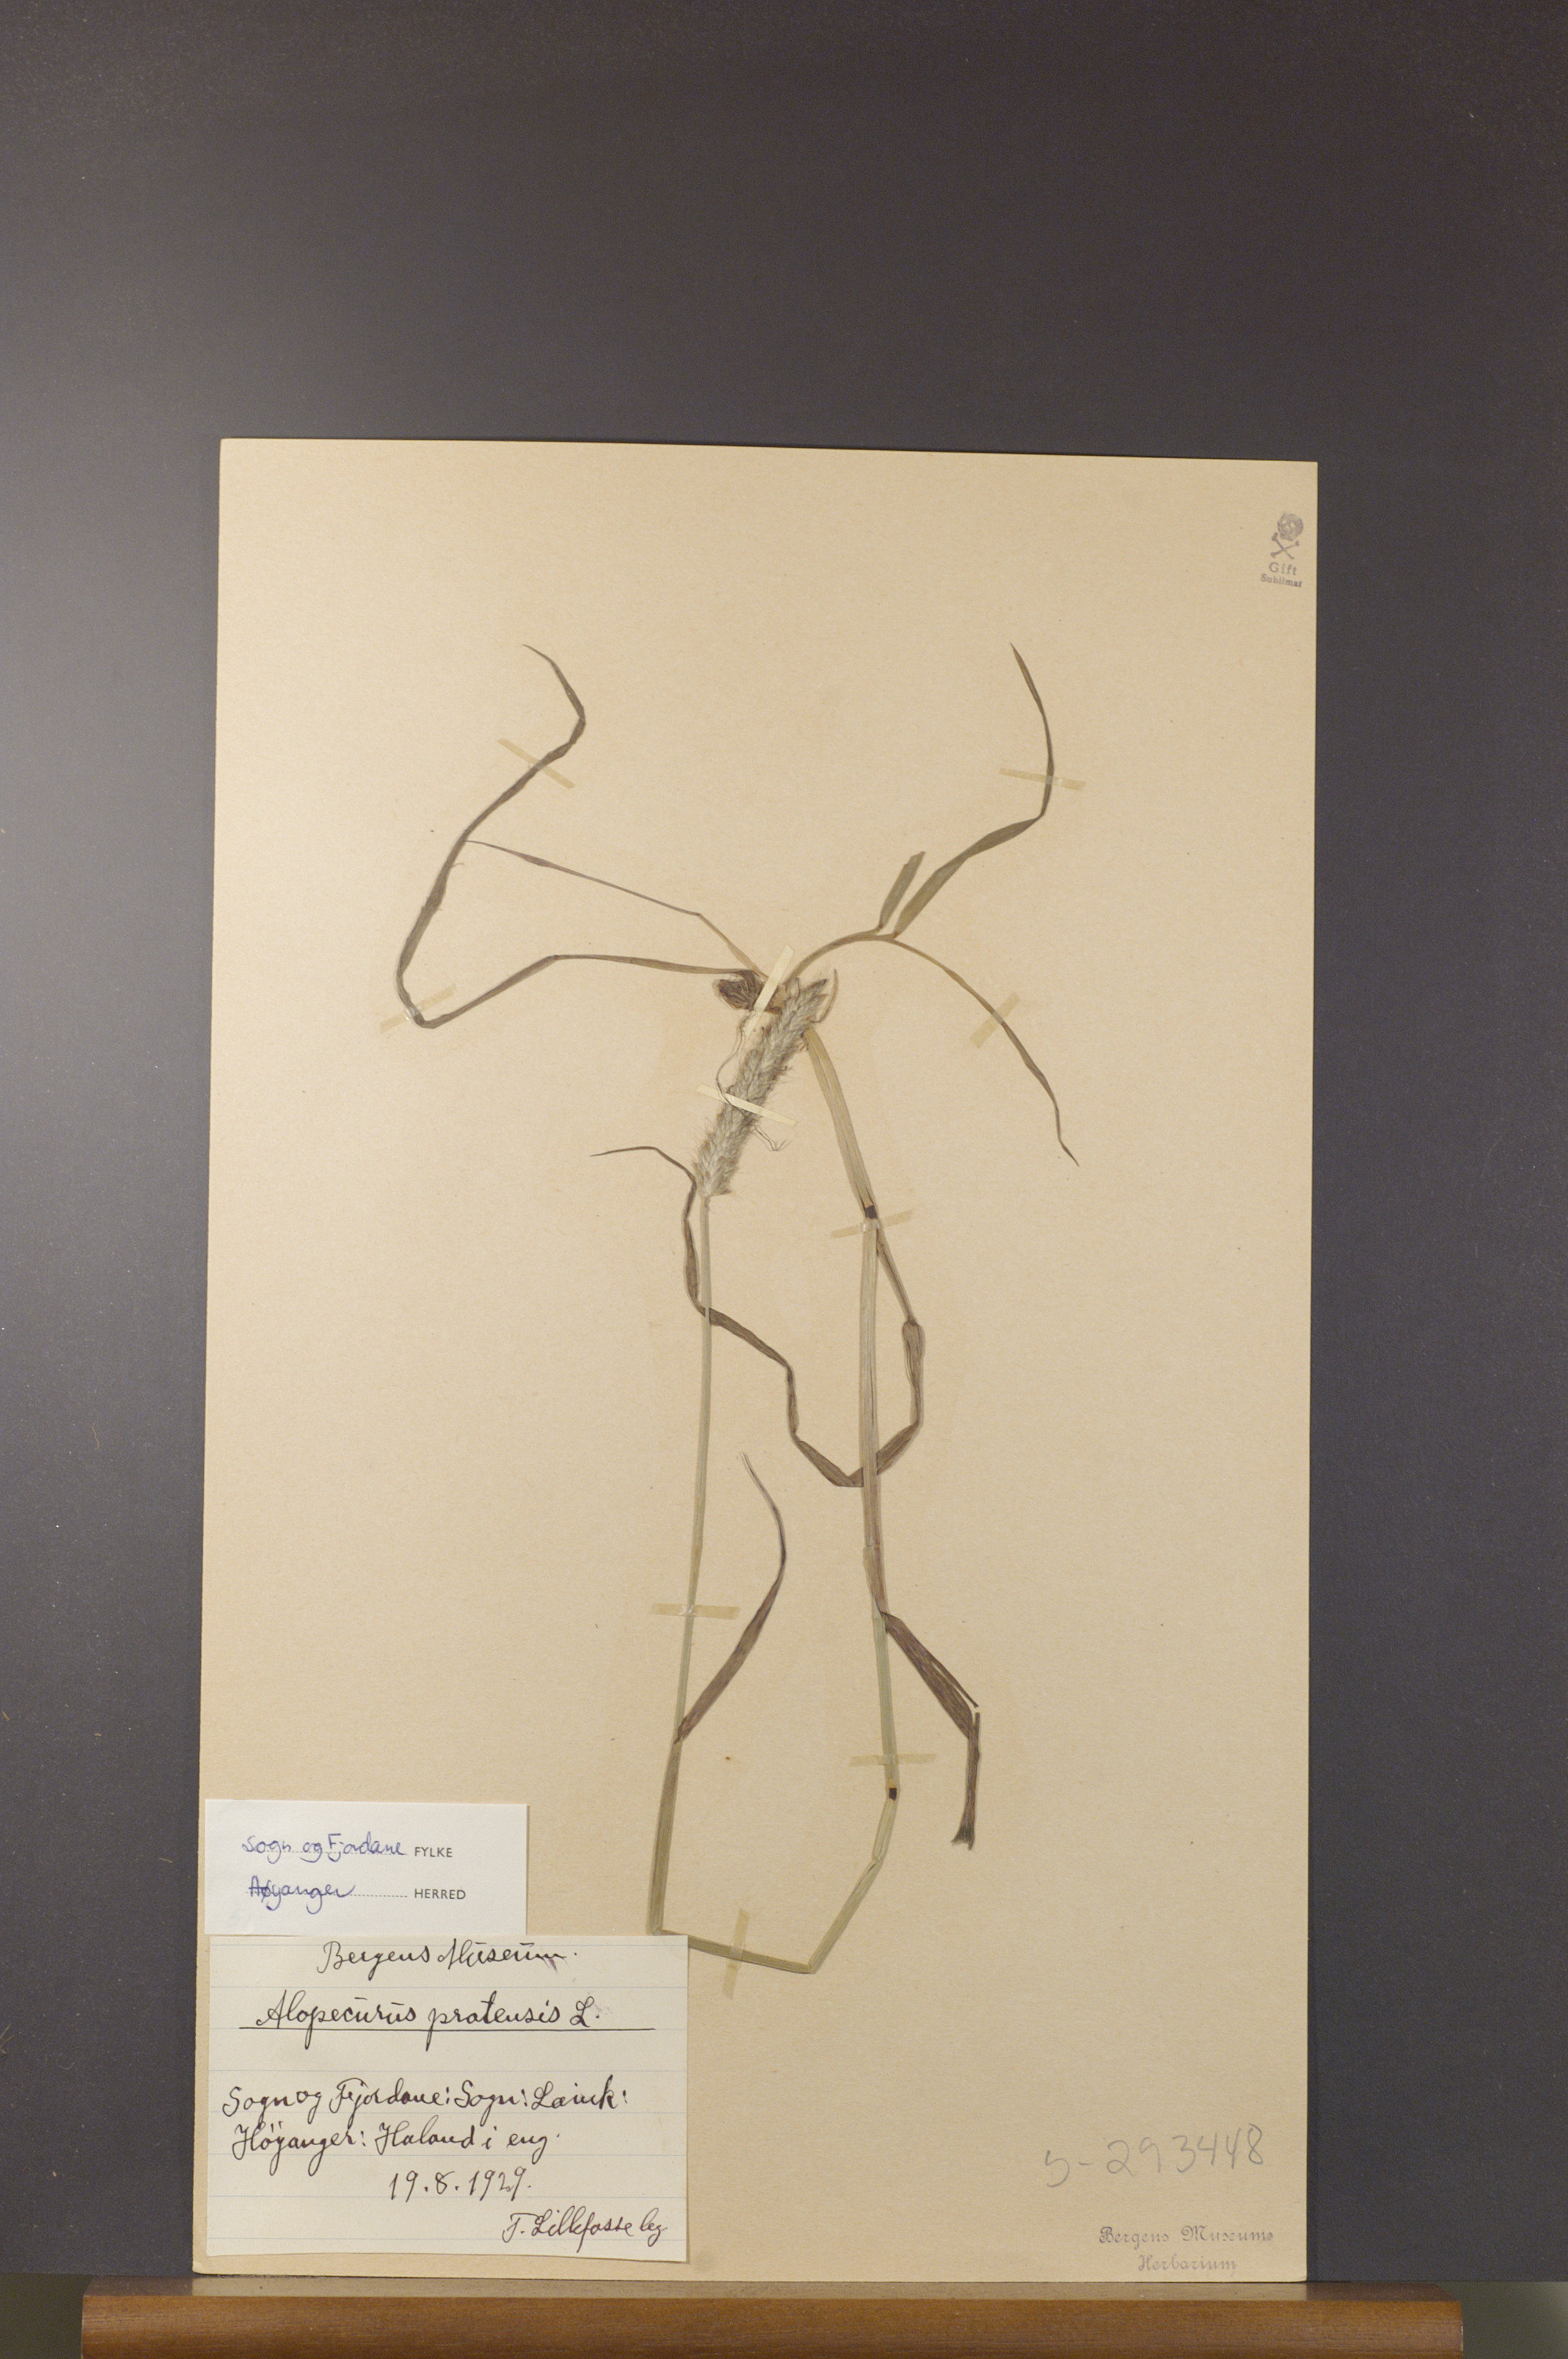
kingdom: Plantae
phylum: Tracheophyta
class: Liliopsida
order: Poales
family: Poaceae
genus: Alopecurus
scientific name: Alopecurus pratensis
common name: Meadow foxtail
